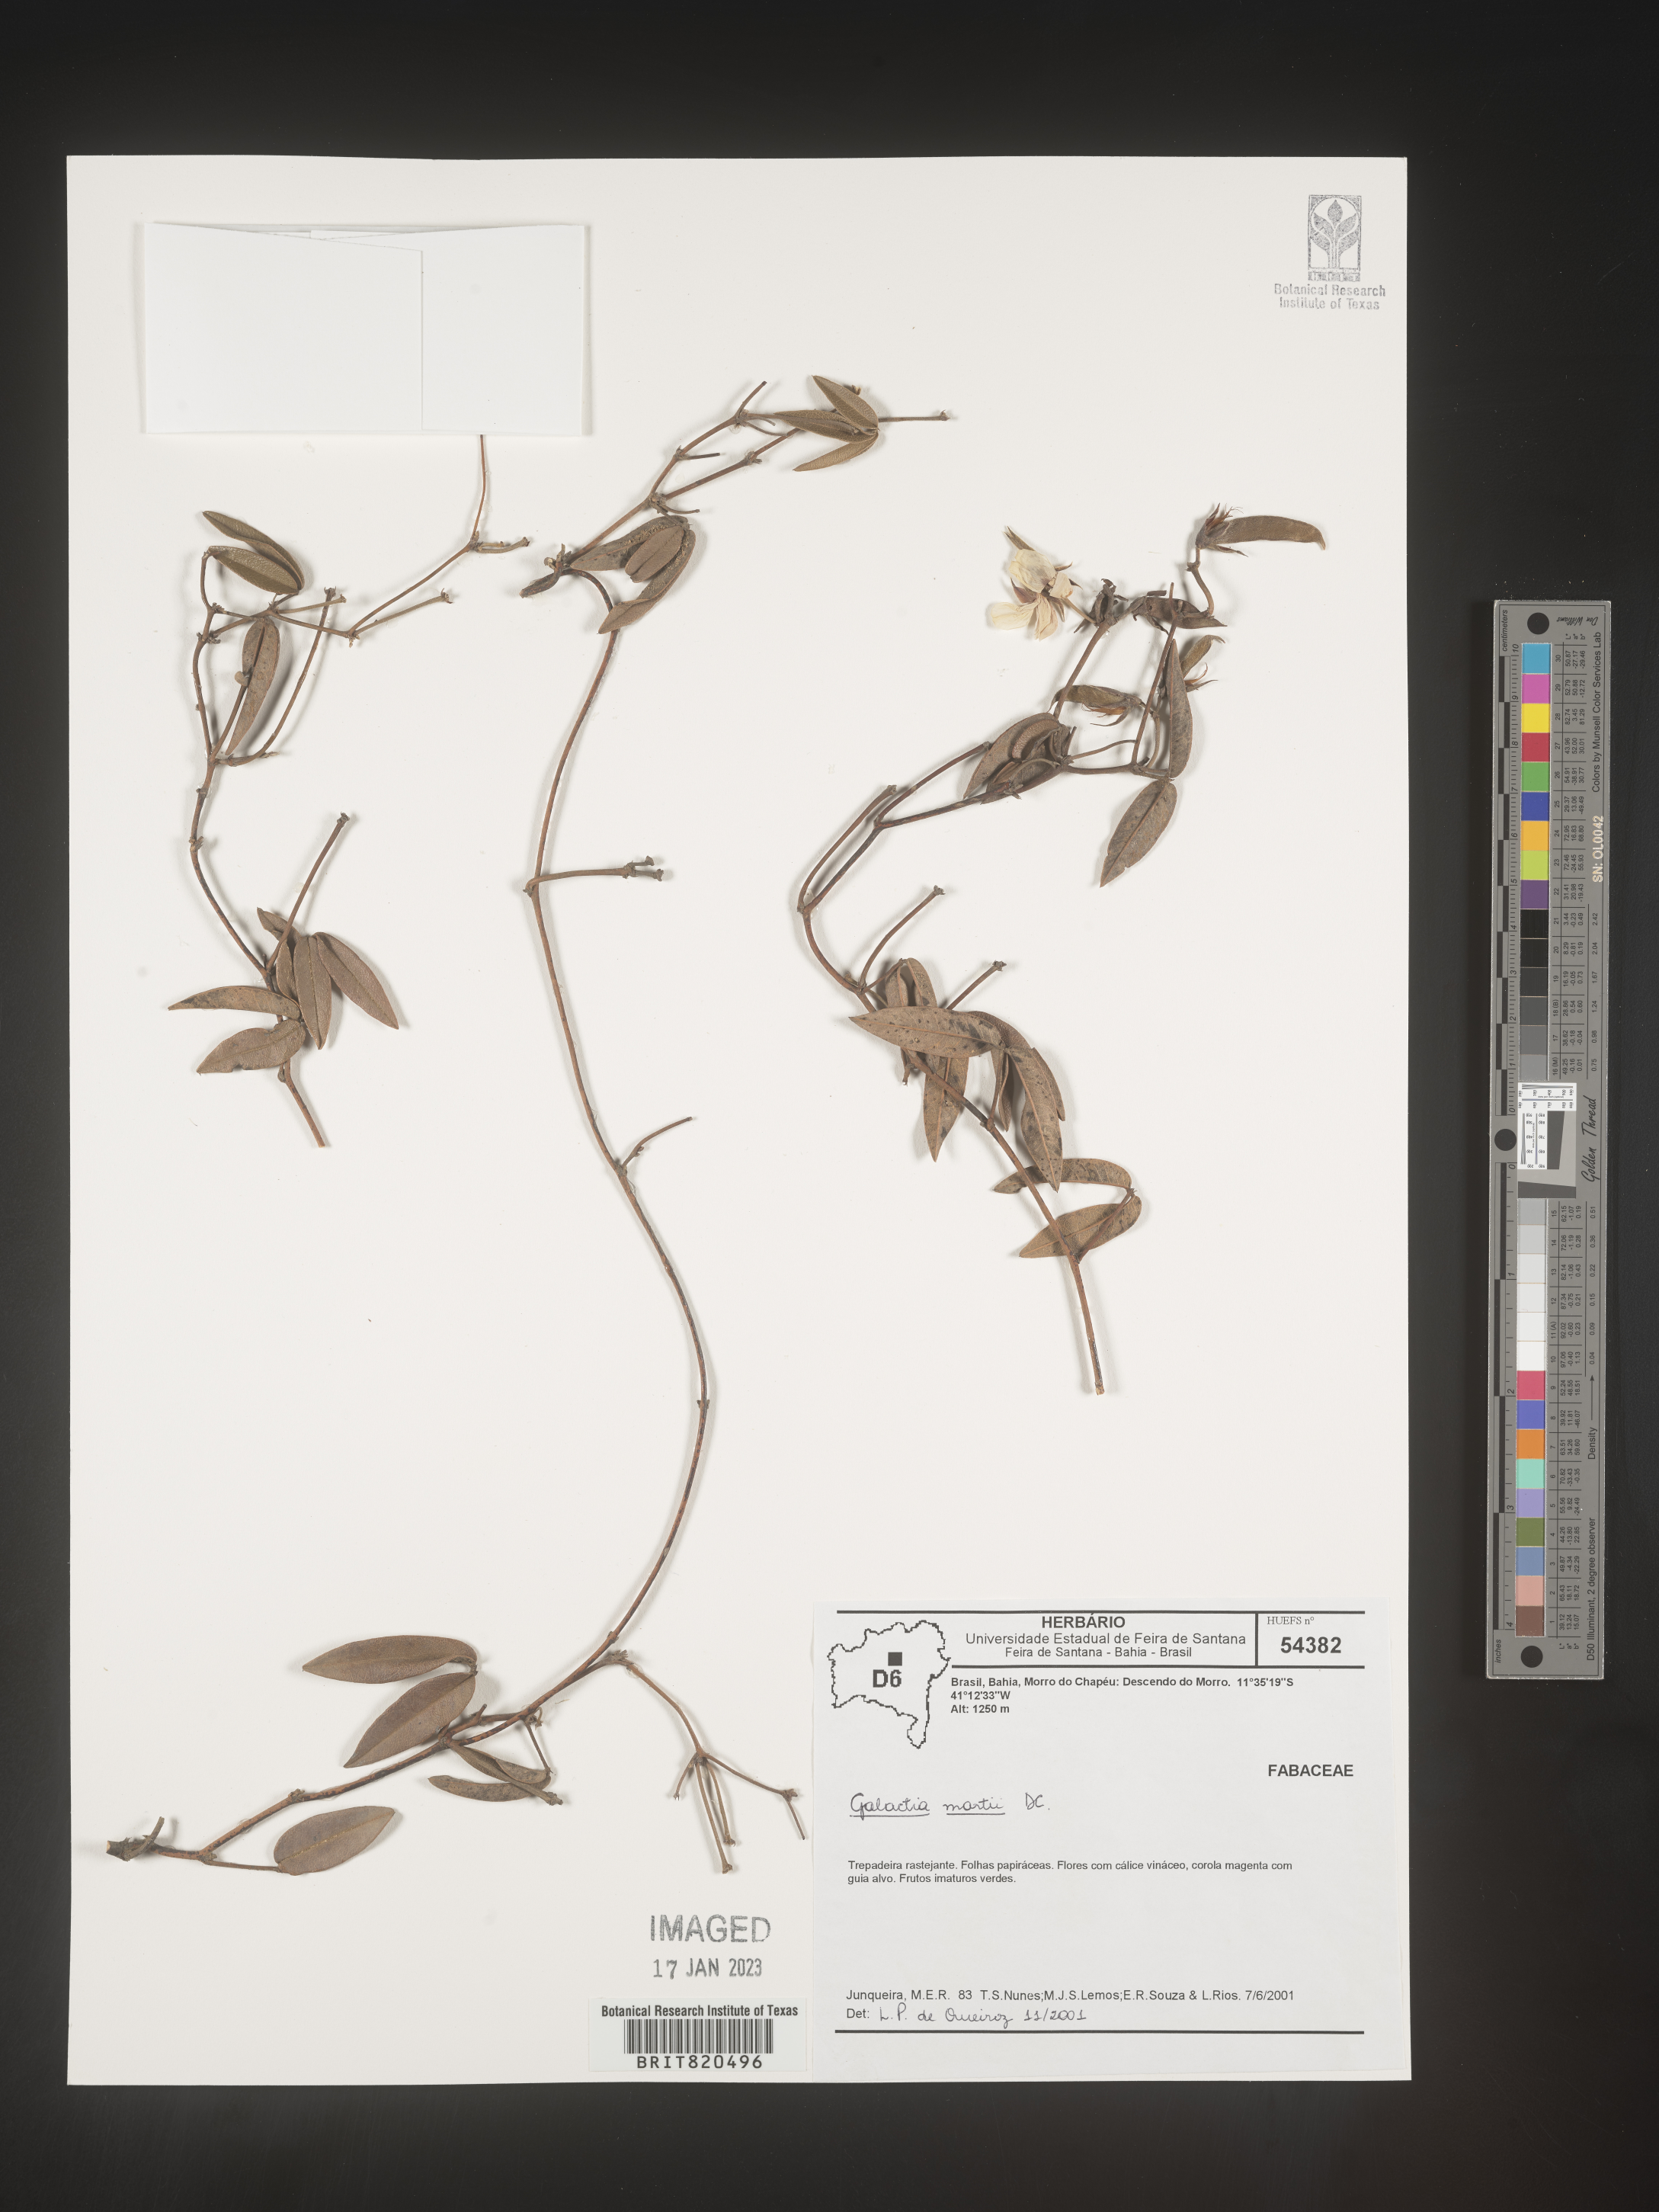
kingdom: Plantae
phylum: Tracheophyta
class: Magnoliopsida
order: Fabales
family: Fabaceae
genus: Galactia
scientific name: Galactia
